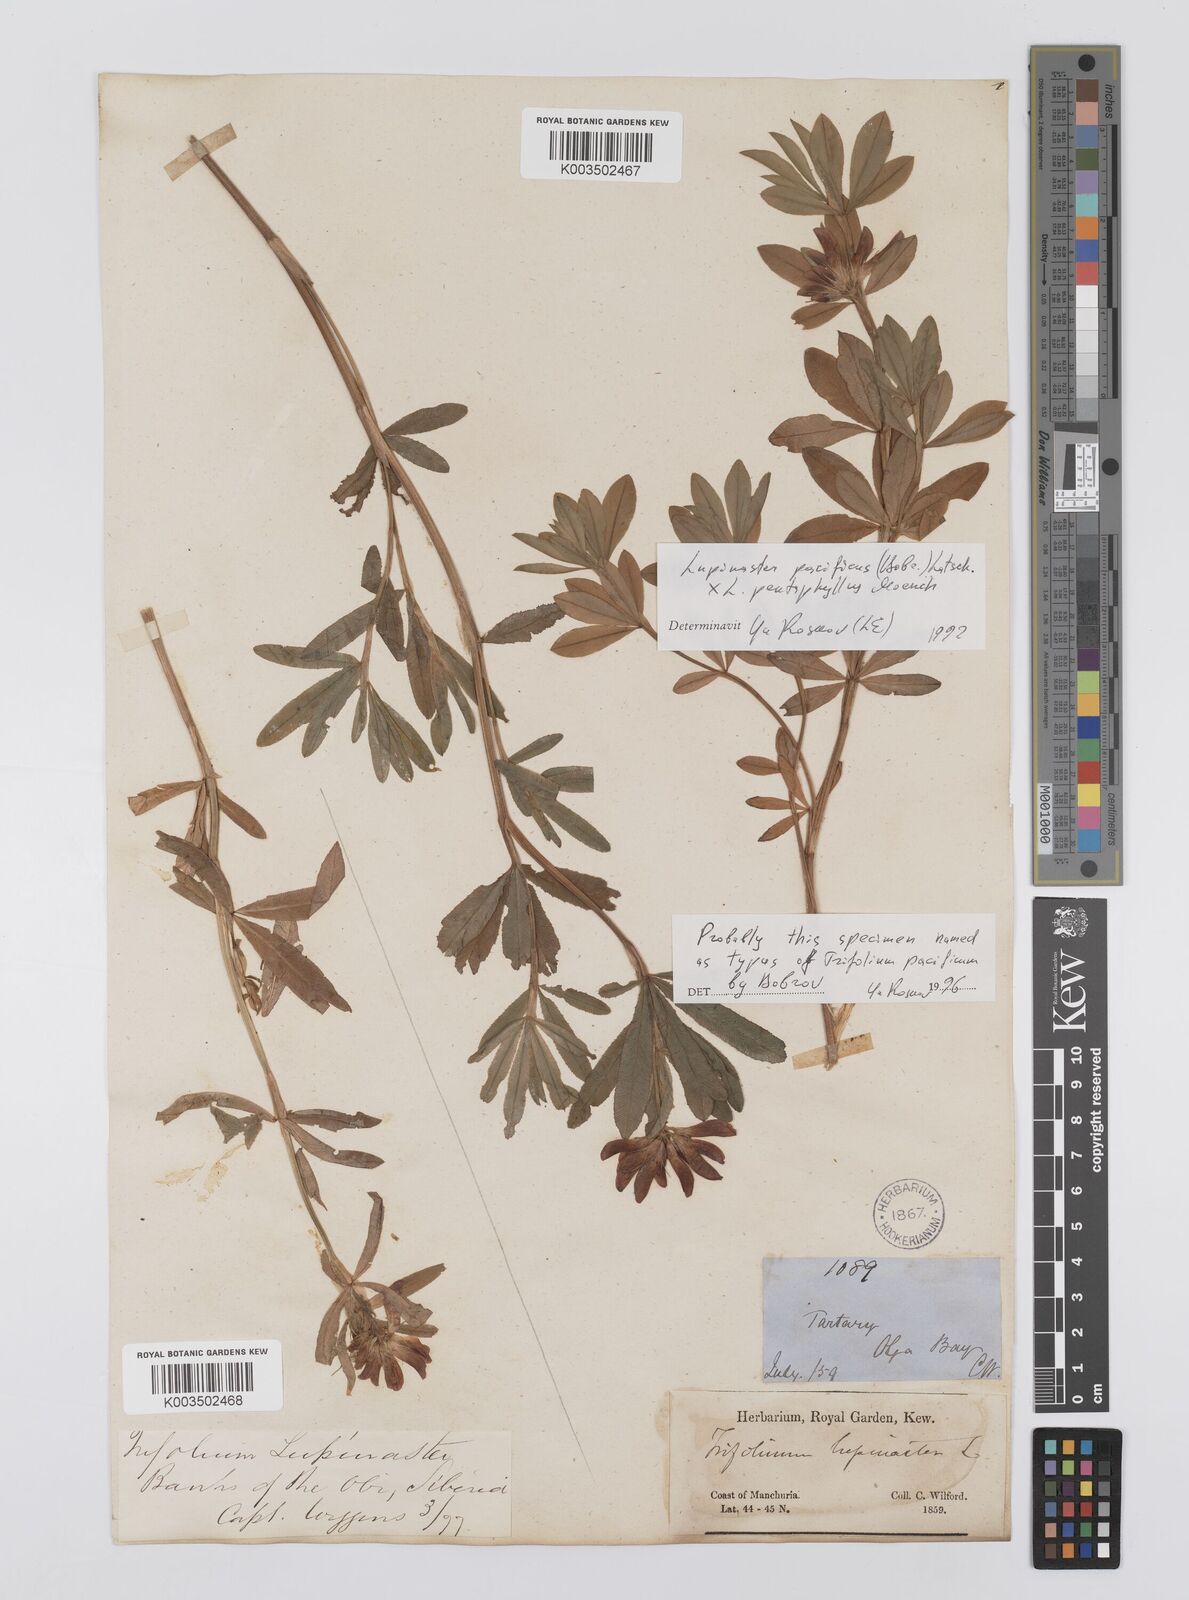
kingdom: Plantae
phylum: Tracheophyta
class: Magnoliopsida
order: Fabales
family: Fabaceae
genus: Trifolium
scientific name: Trifolium lupinaster
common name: Lupine clover
